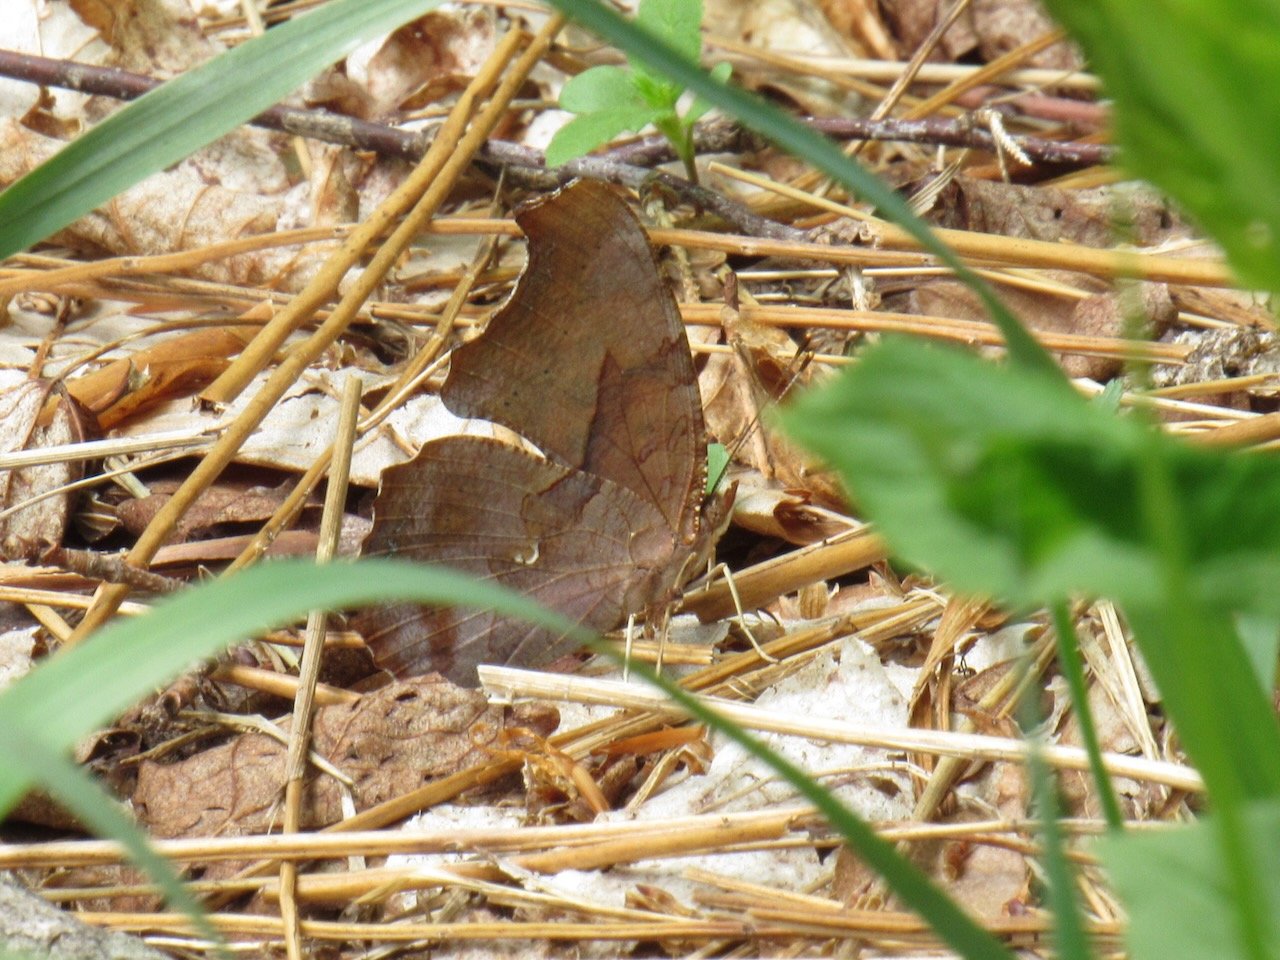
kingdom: Animalia
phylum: Arthropoda
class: Insecta
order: Lepidoptera
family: Nymphalidae
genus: Polygonia
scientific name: Polygonia interrogationis
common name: Question Mark
